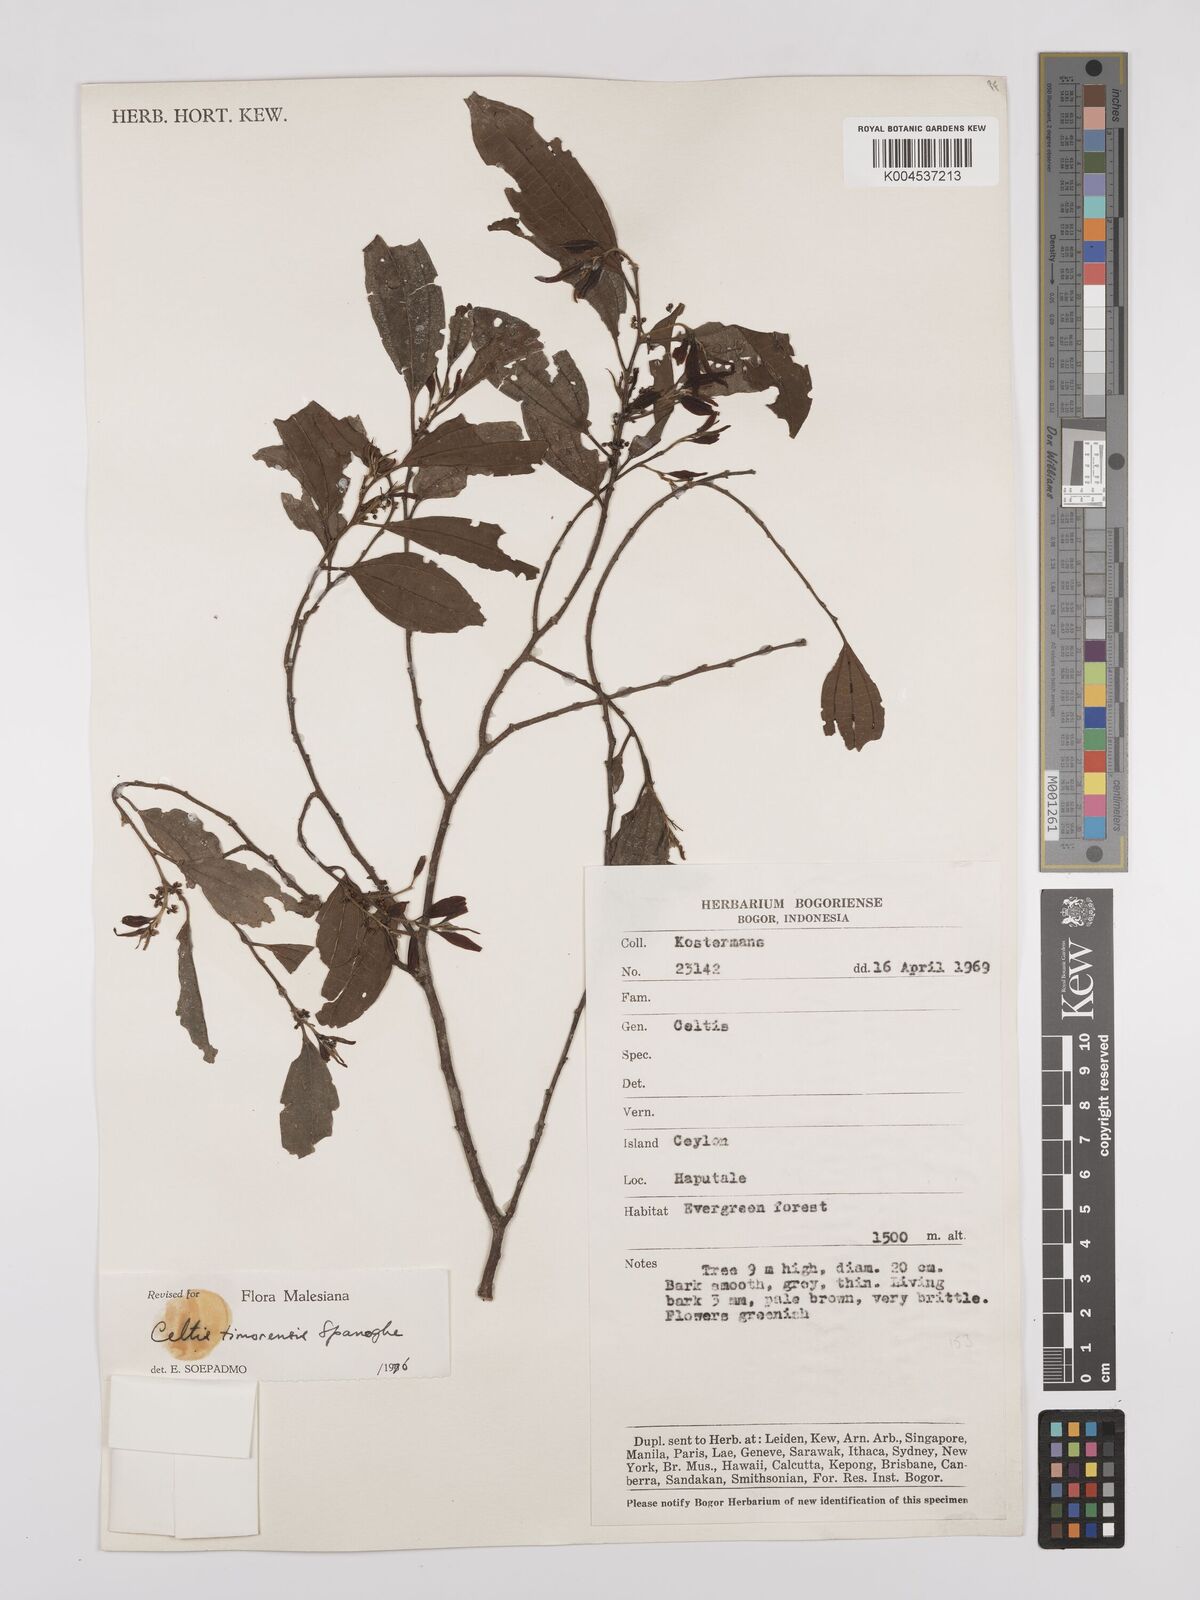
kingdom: Plantae
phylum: Tracheophyta
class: Magnoliopsida
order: Rosales
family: Cannabaceae
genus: Celtis
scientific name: Celtis timorensis
